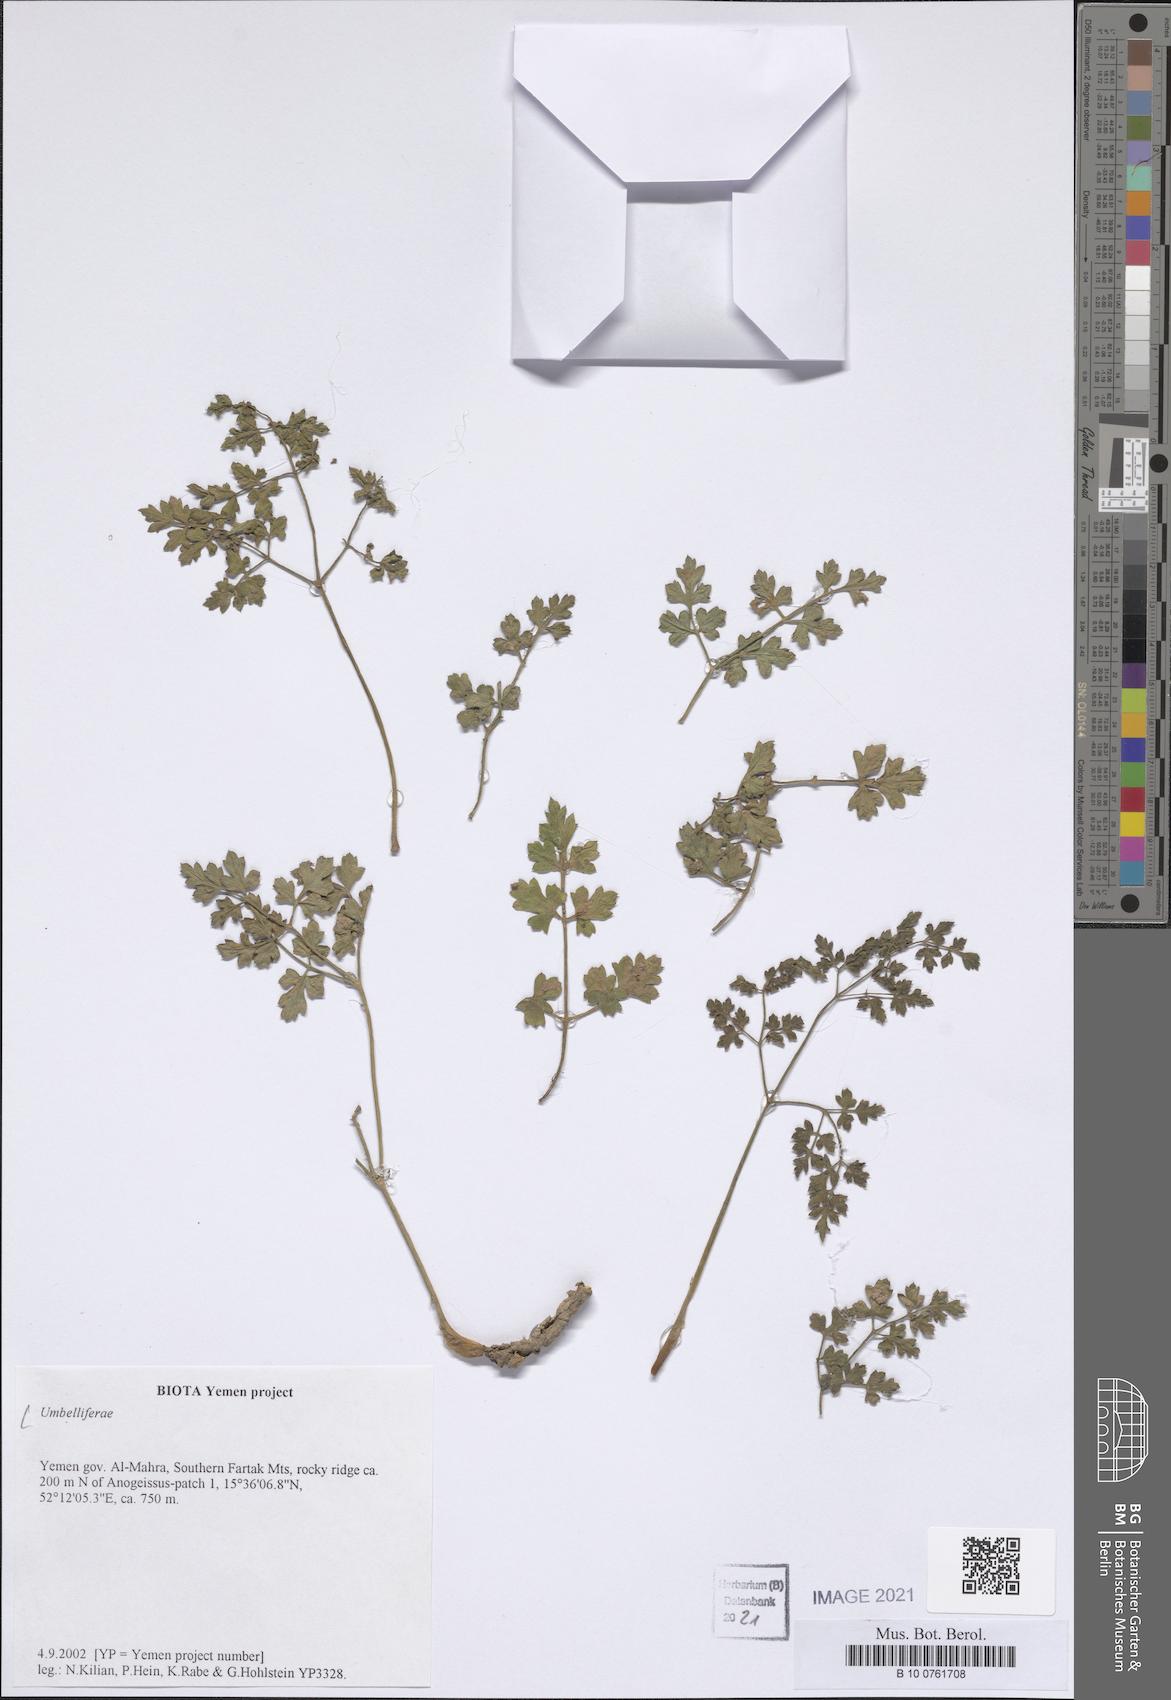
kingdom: Plantae
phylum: Tracheophyta
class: Magnoliopsida
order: Apiales
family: Apiaceae
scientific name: Apiaceae
